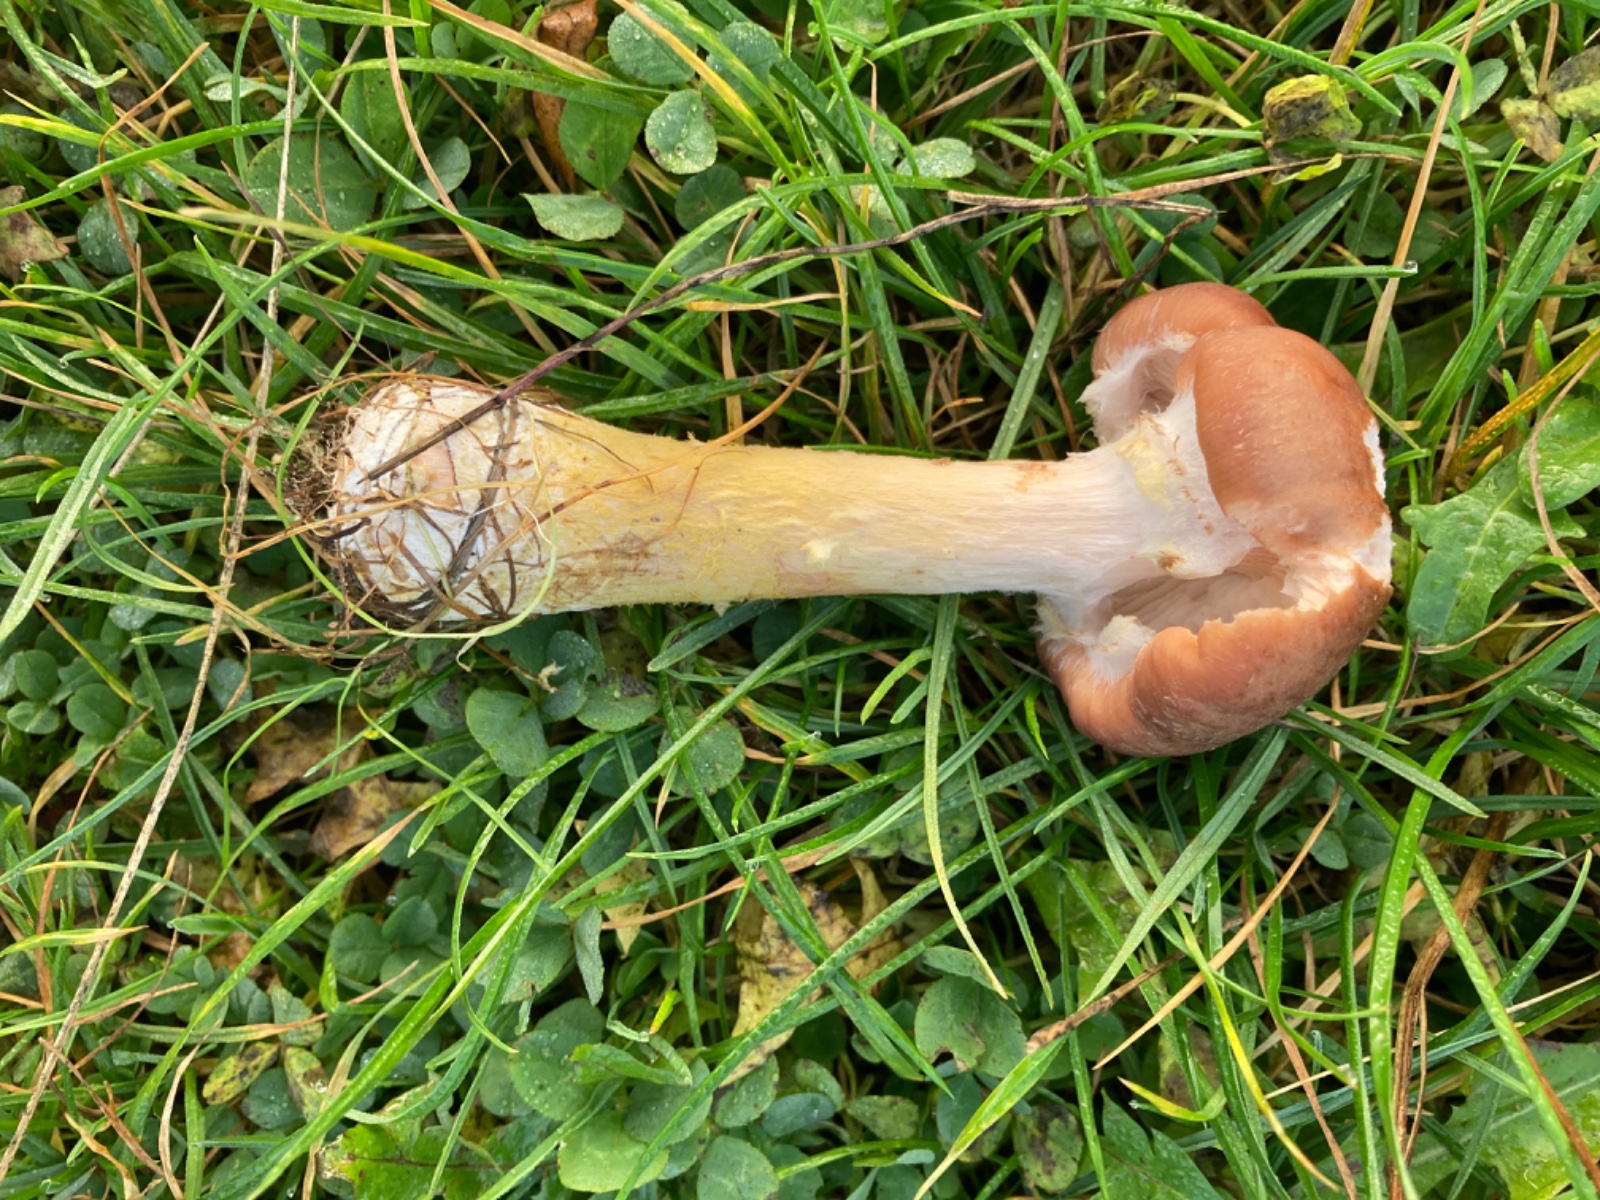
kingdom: Fungi
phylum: Basidiomycota
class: Agaricomycetes
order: Agaricales
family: Physalacriaceae
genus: Armillaria
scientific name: Armillaria lutea
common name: køllestokket honningsvamp
